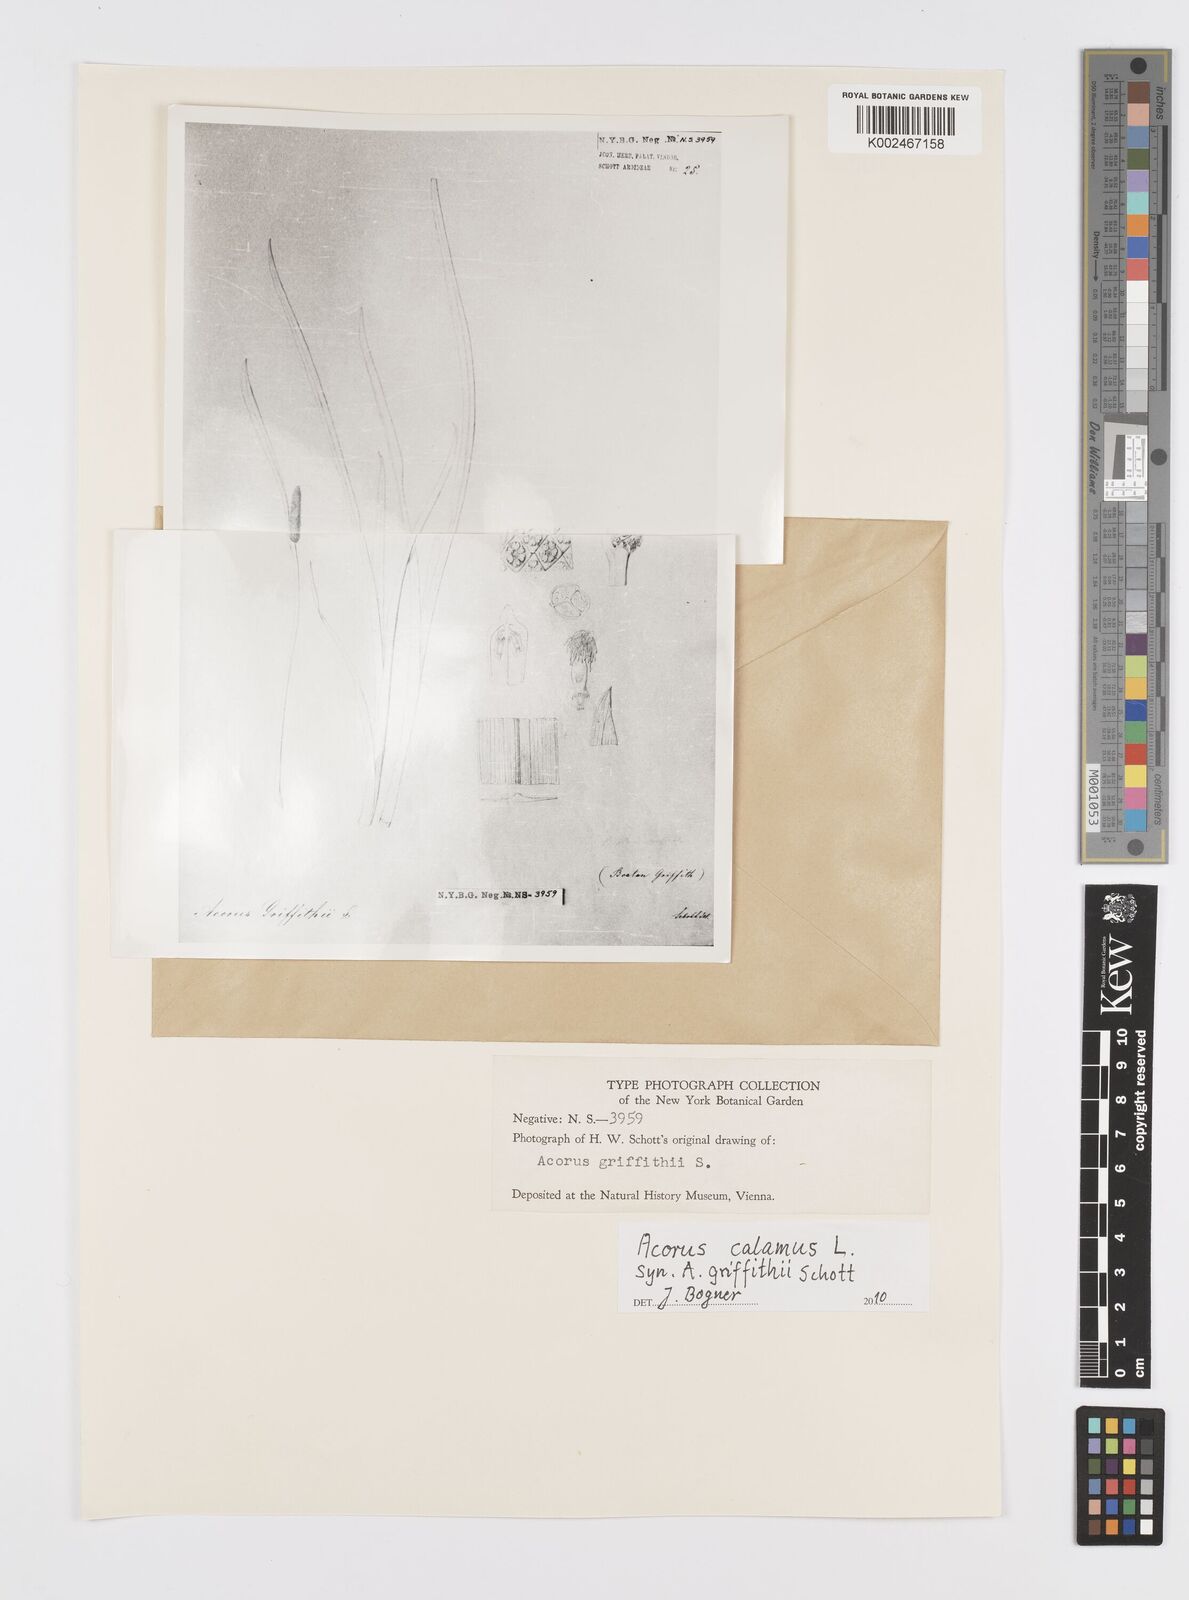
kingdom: Plantae
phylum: Tracheophyta
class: Liliopsida
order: Acorales
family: Acoraceae
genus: Acorus
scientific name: Acorus calamus
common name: Sweet-flag
